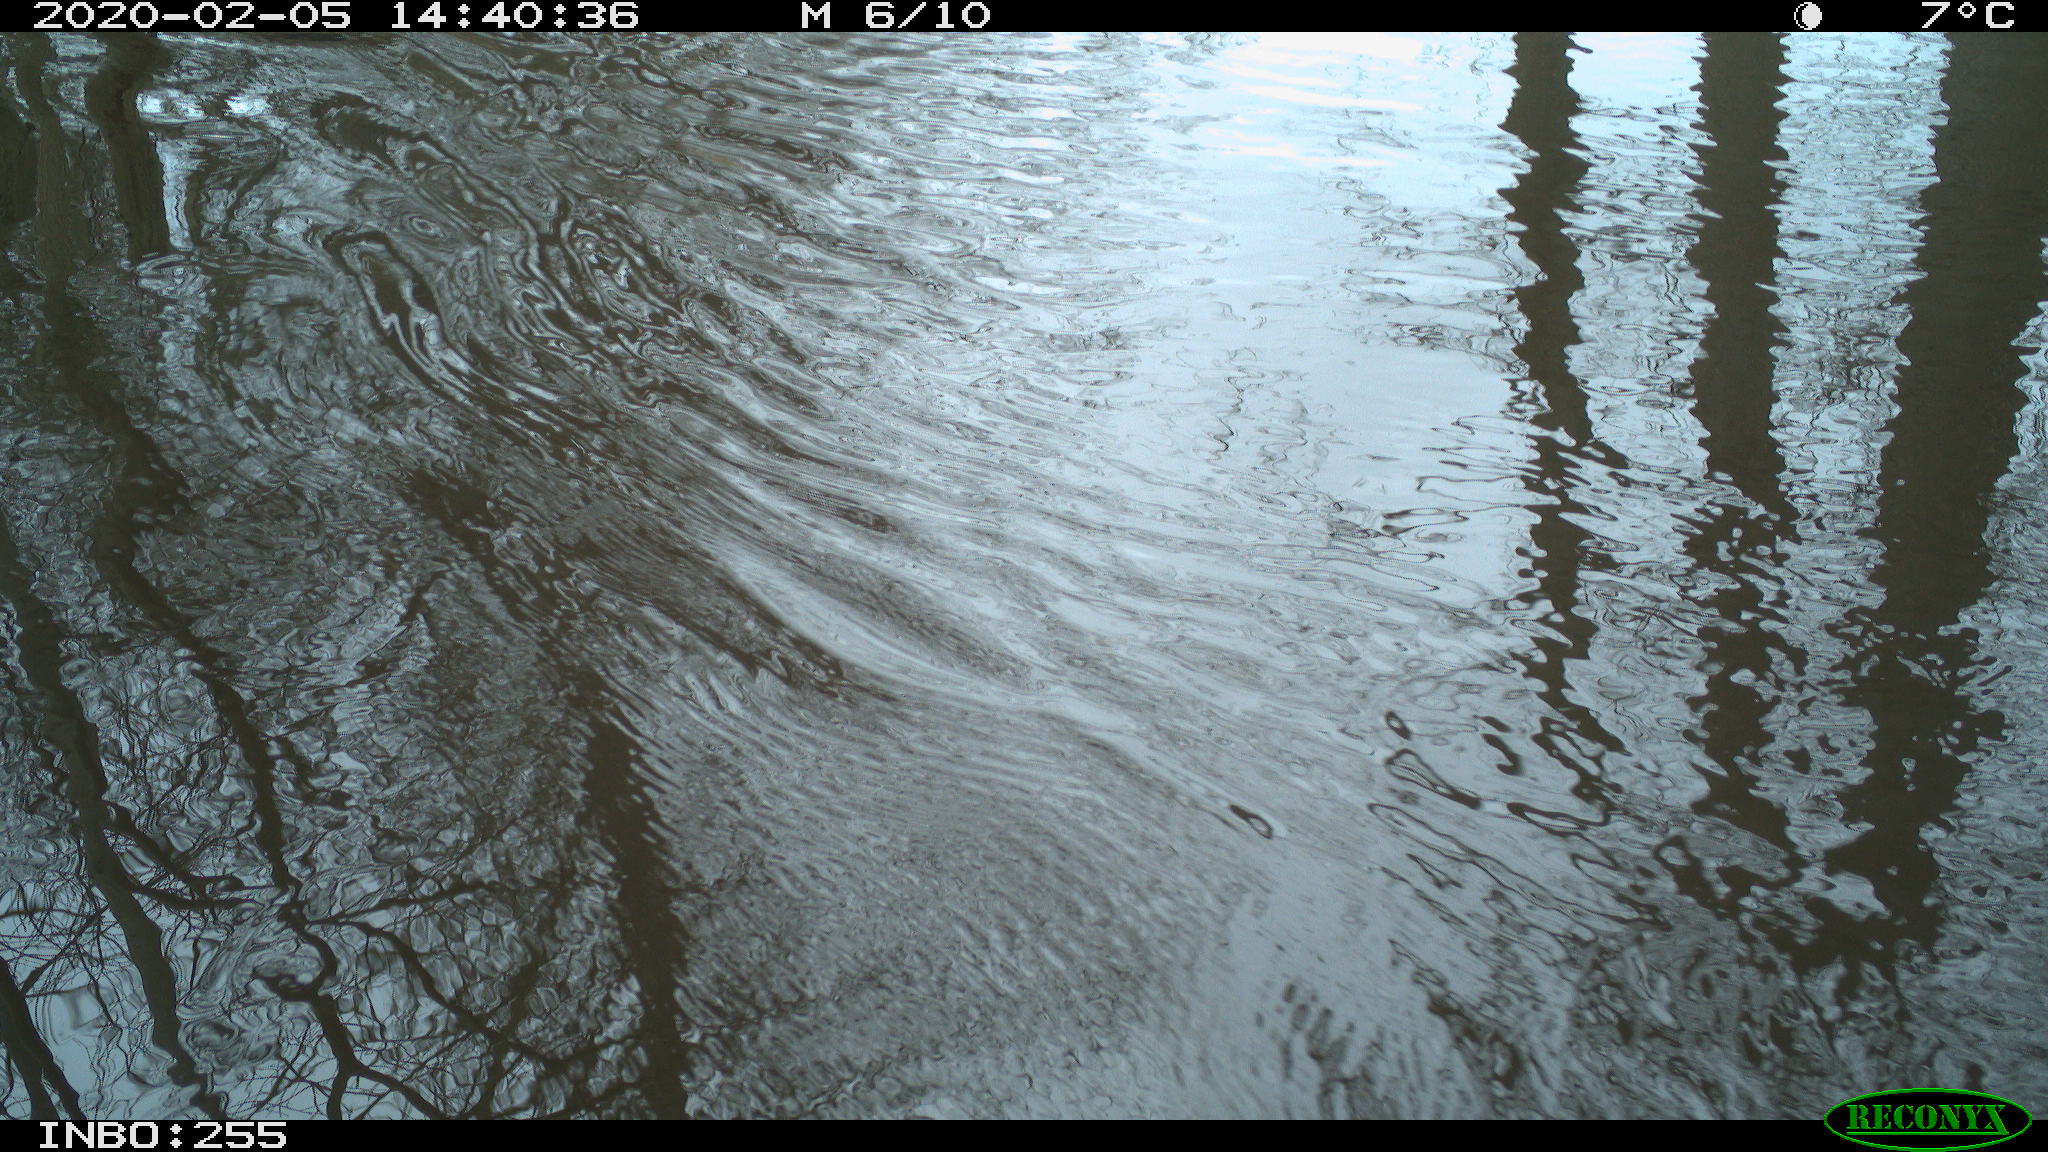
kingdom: Animalia
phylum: Chordata
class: Aves
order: Gruiformes
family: Rallidae
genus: Fulica
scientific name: Fulica atra
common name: Eurasian coot
